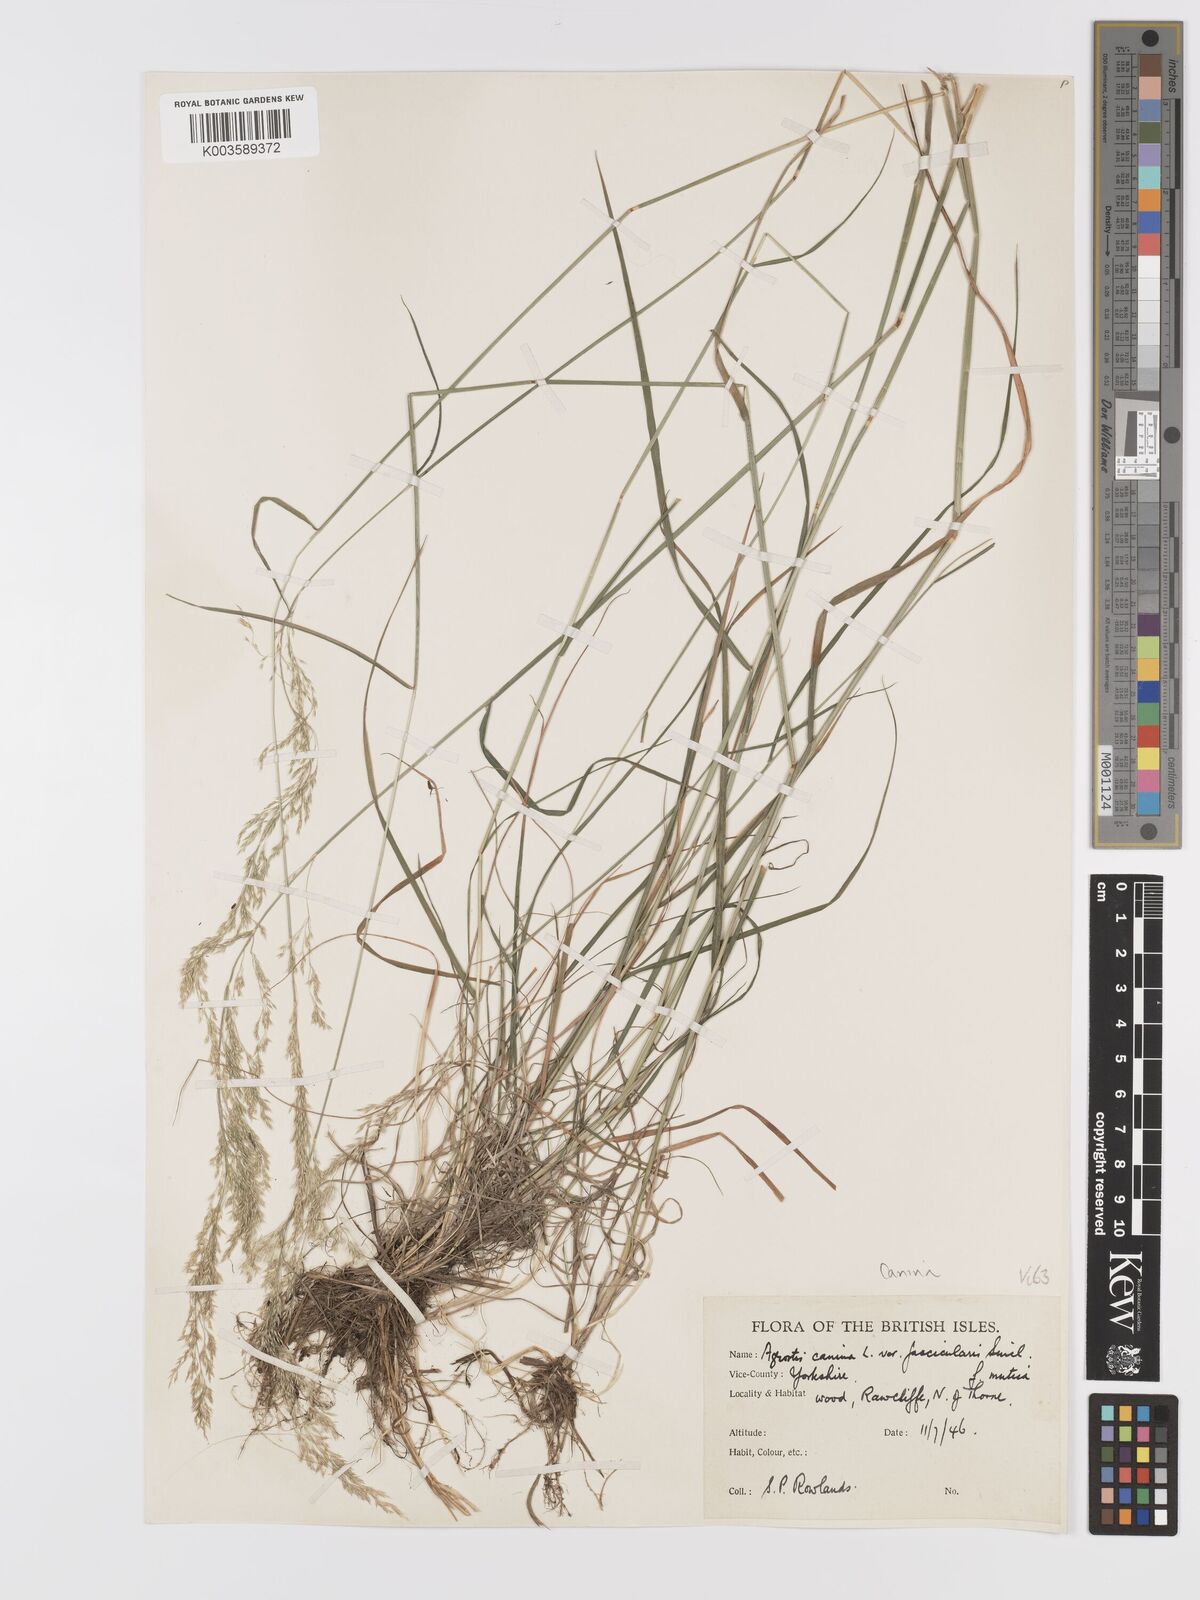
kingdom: Plantae
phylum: Tracheophyta
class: Liliopsida
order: Poales
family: Poaceae
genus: Agrostis
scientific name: Agrostis canina
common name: Velvet bent
